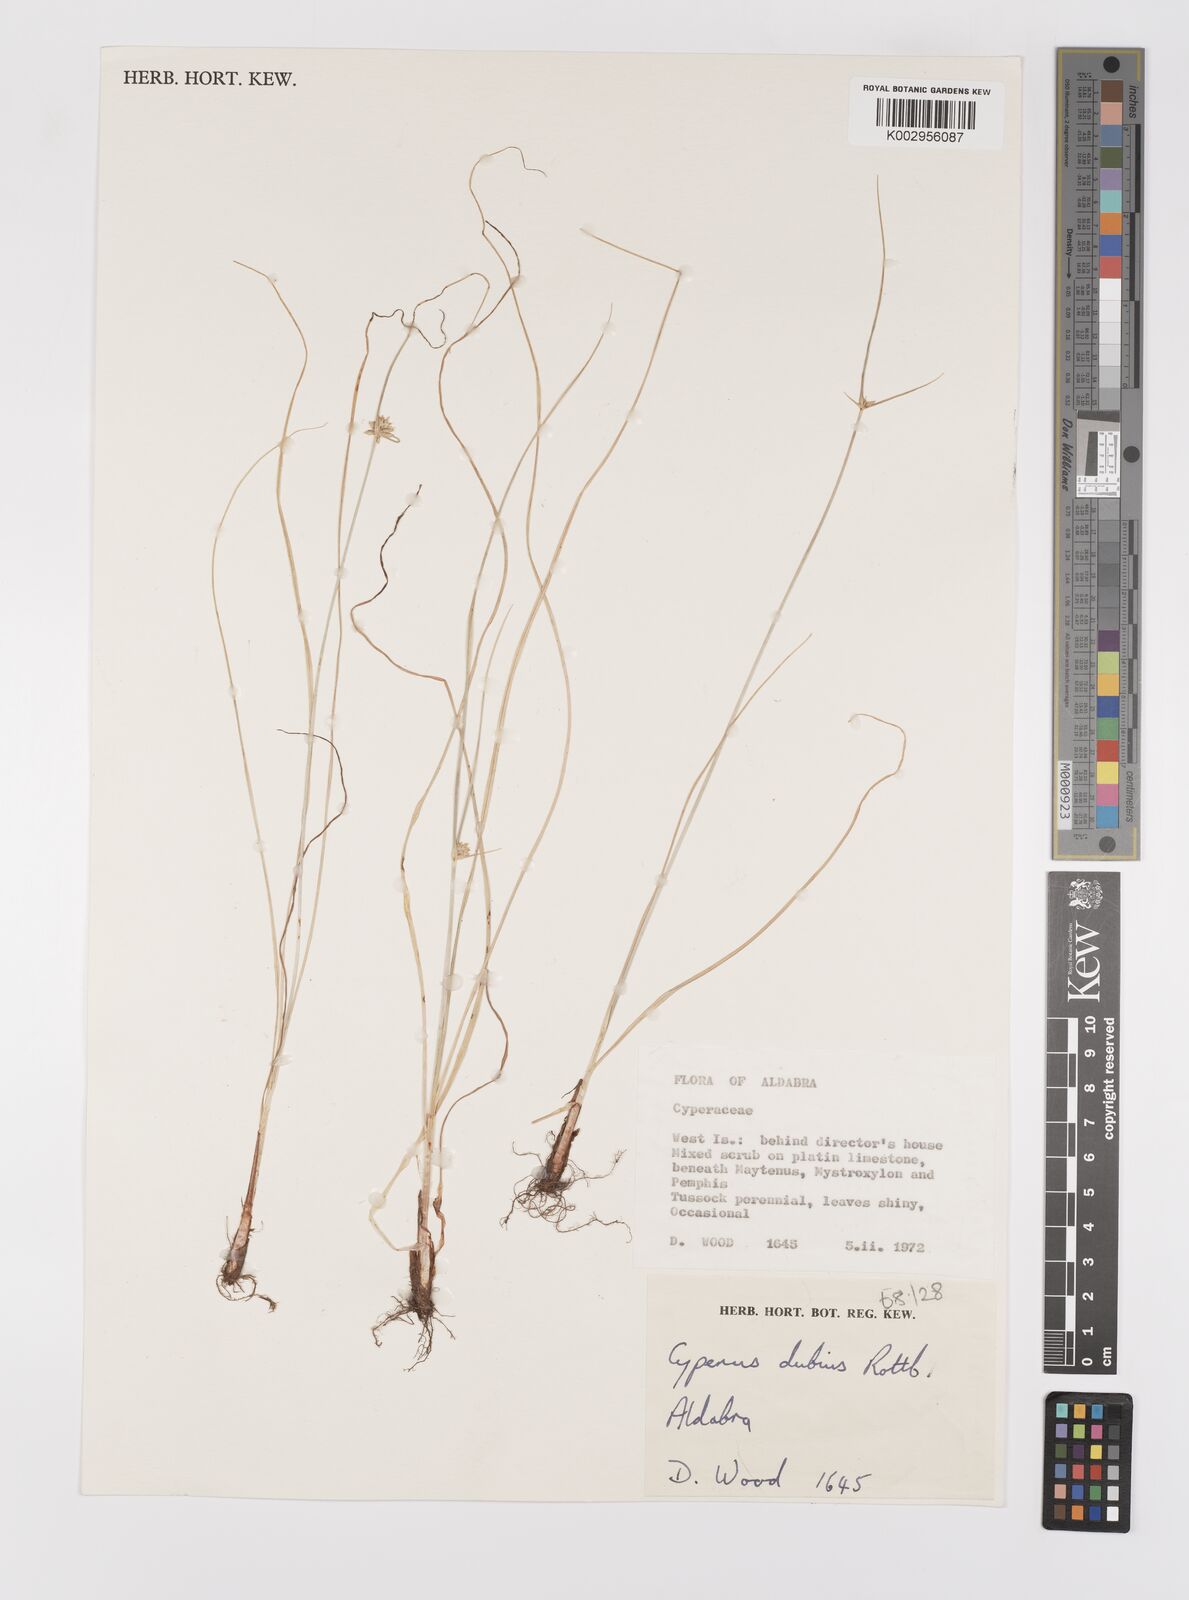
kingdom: Plantae
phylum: Tracheophyta
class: Liliopsida
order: Poales
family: Cyperaceae
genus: Cyperus
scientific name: Cyperus dubius
